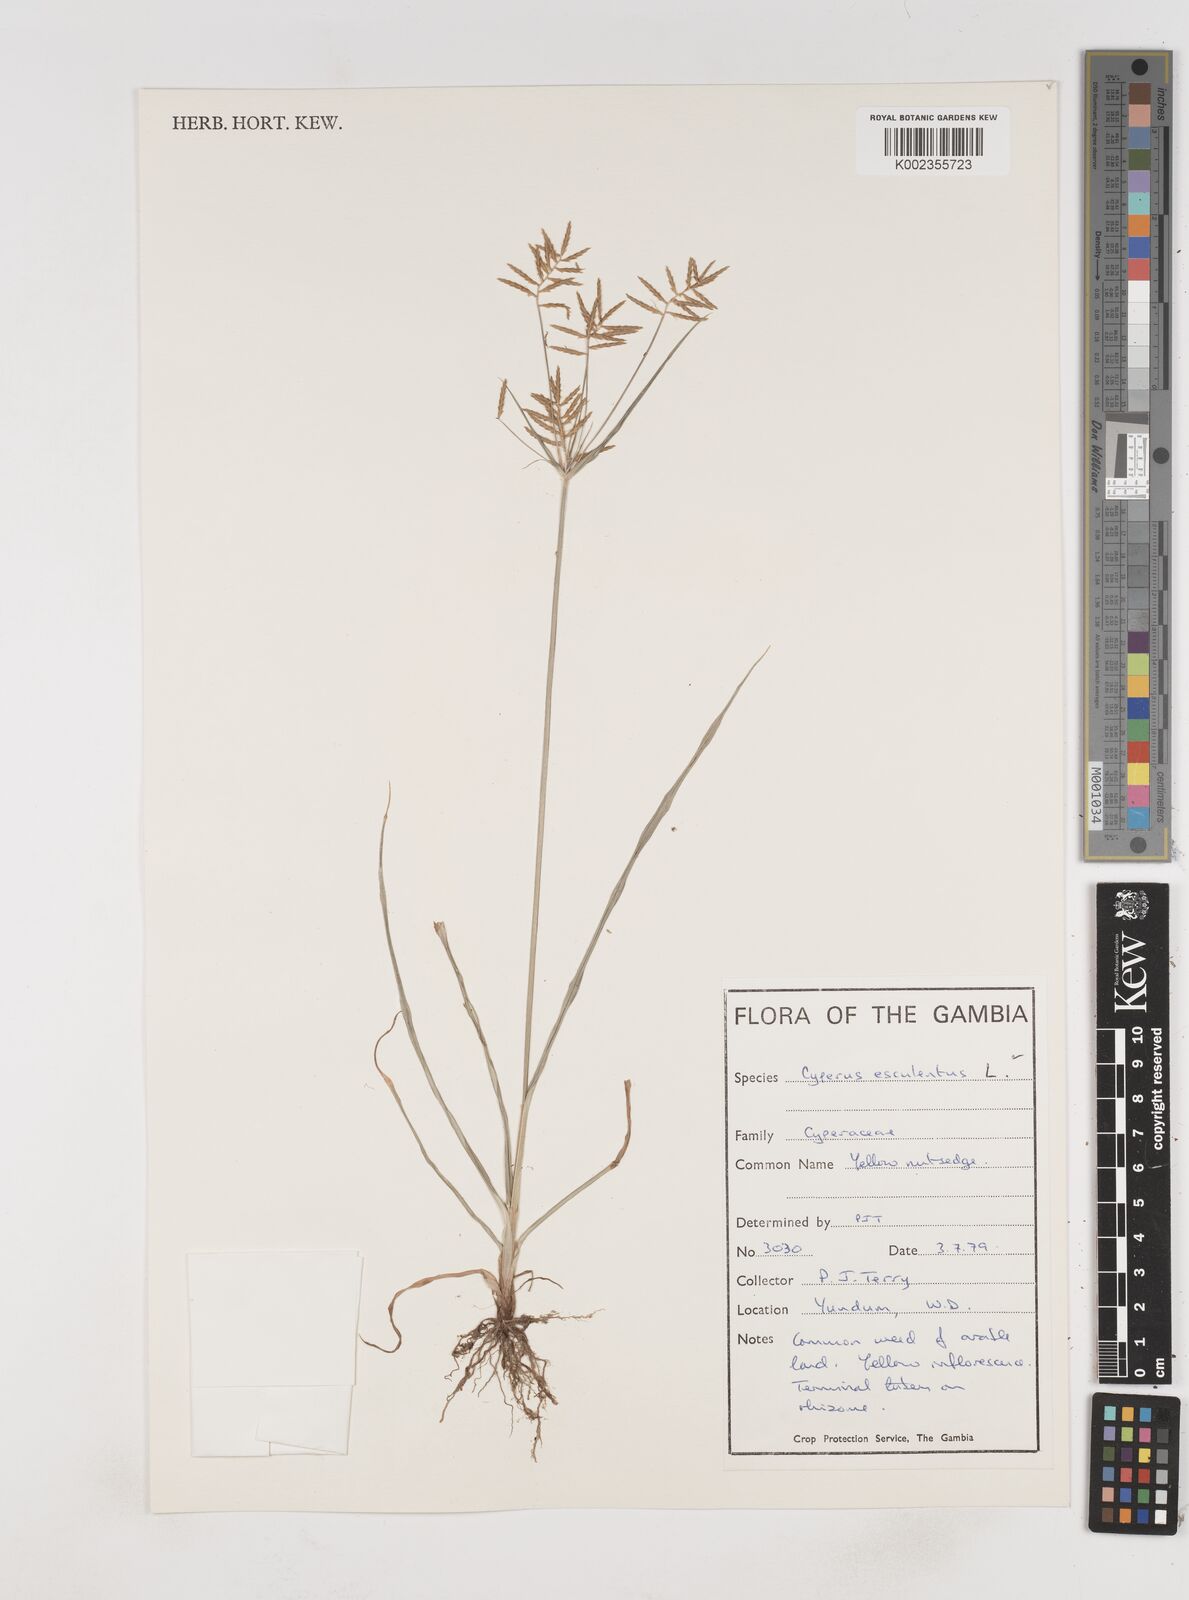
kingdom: Plantae
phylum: Tracheophyta
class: Liliopsida
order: Poales
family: Cyperaceae
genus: Cyperus
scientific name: Cyperus esculentus
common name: Yellow nutsedge
